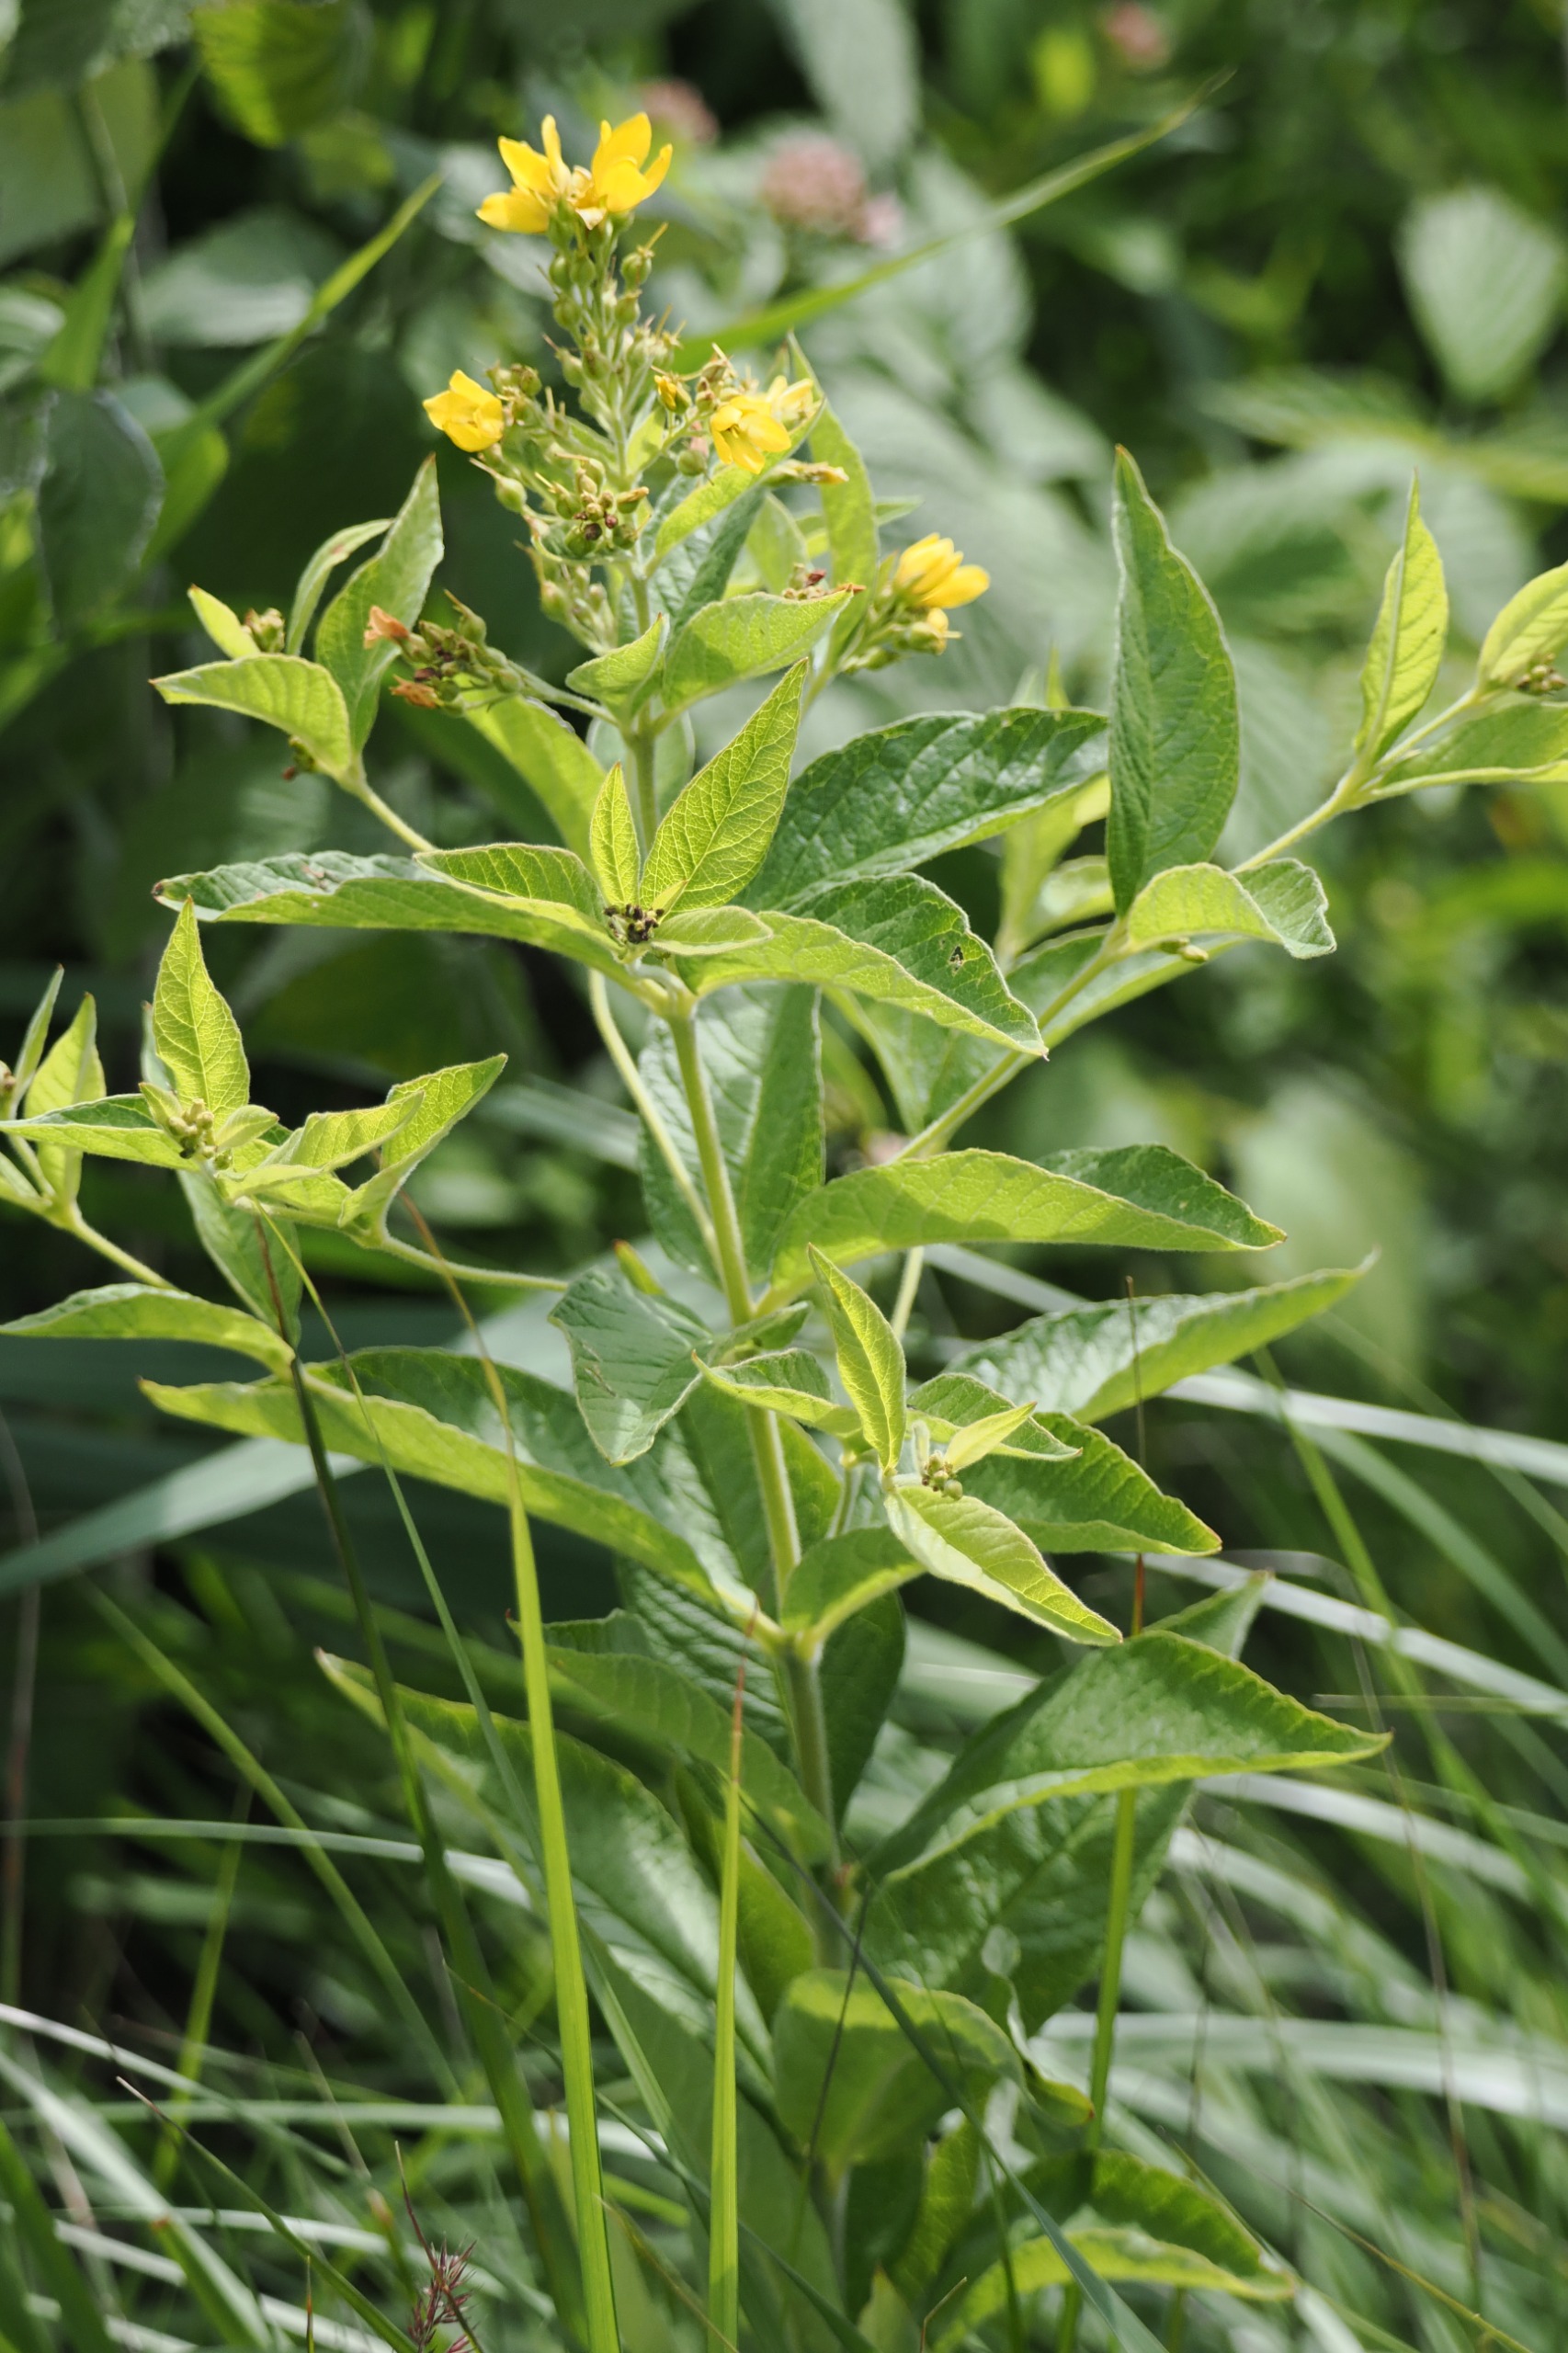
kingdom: Plantae
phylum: Tracheophyta
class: Magnoliopsida
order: Ericales
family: Primulaceae
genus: Lysimachia
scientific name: Lysimachia vulgaris
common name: Almindelig fredløs
